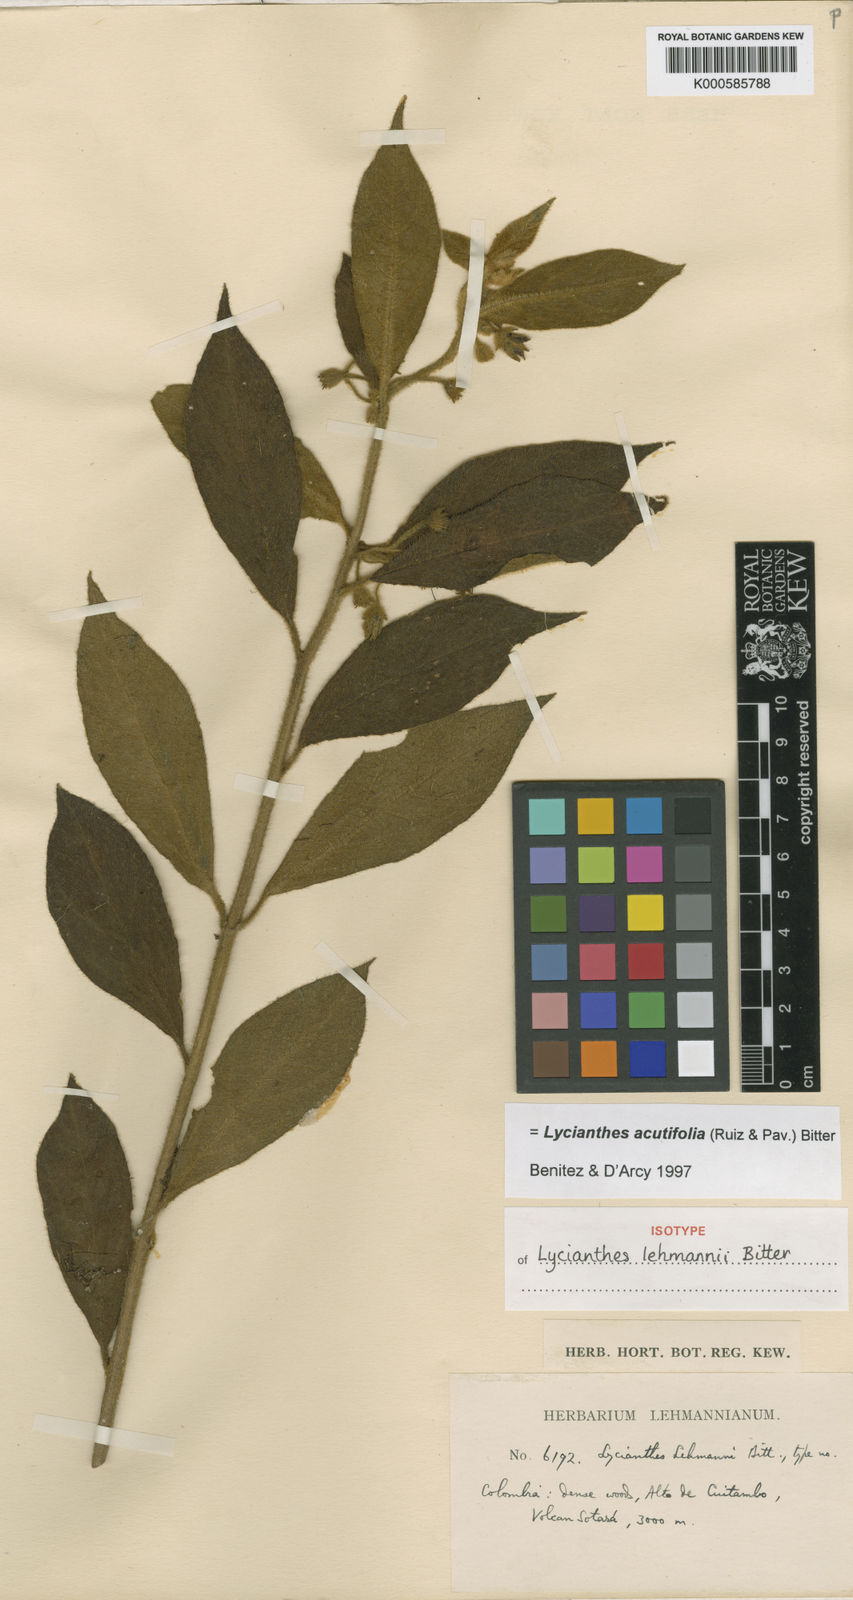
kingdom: Plantae
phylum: Tracheophyta
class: Magnoliopsida
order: Solanales
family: Solanaceae
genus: Lycianthes
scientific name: Lycianthes acutifolia
